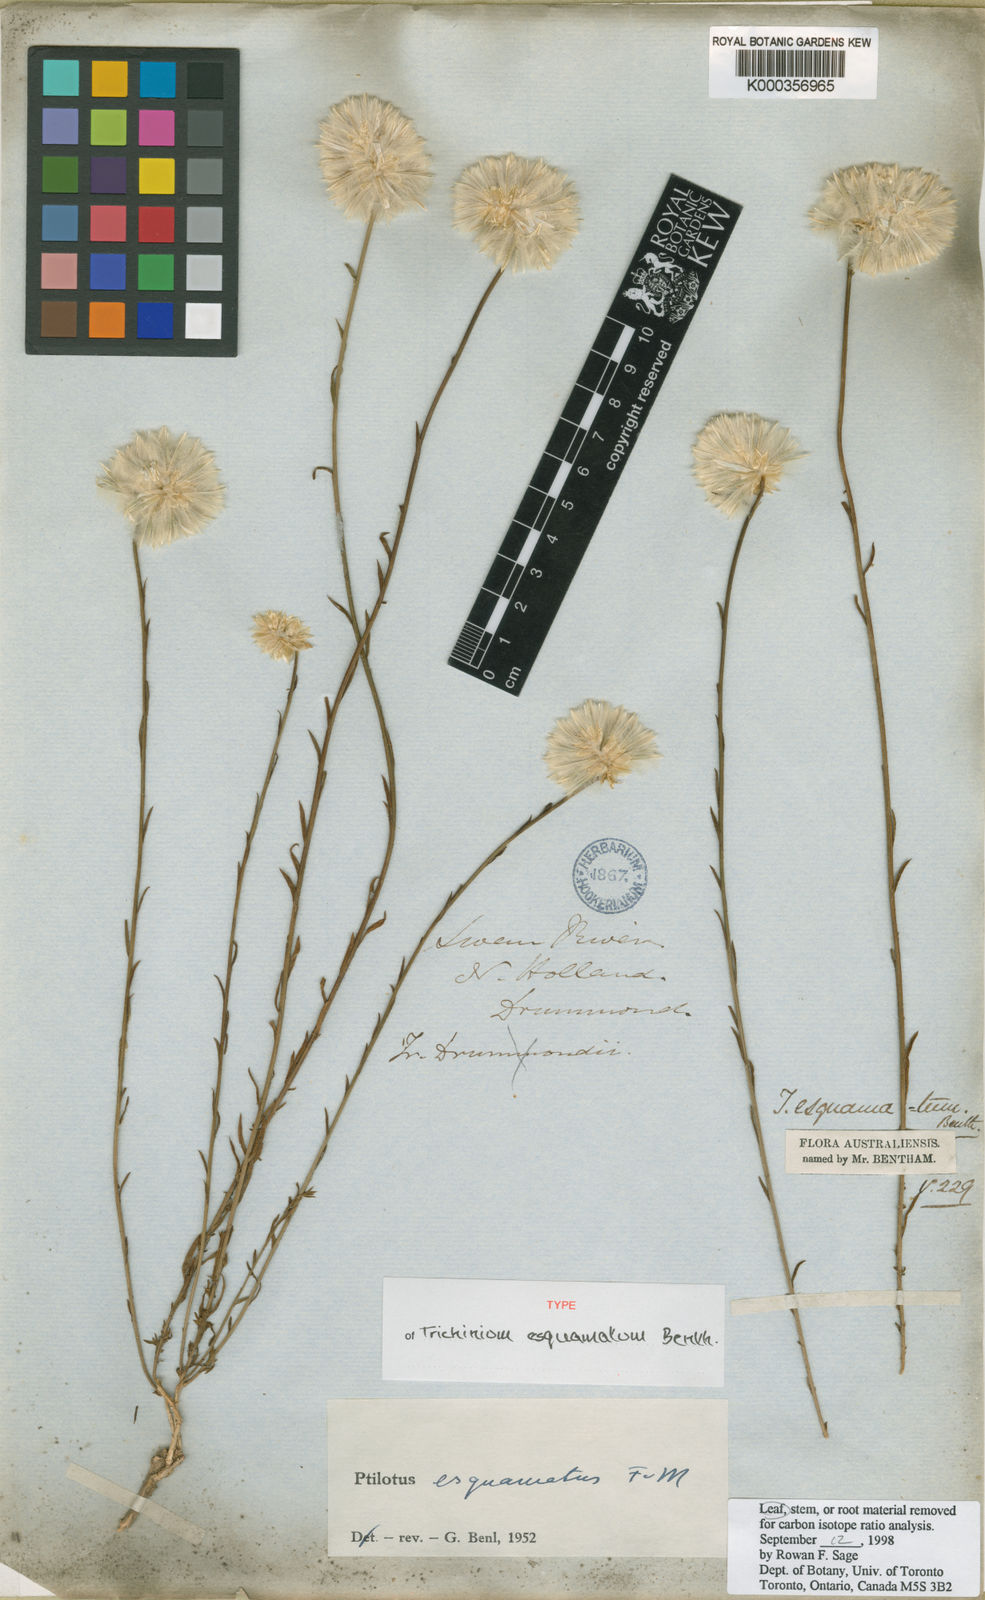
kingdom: Plantae
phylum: Tracheophyta
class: Magnoliopsida
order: Caryophyllales
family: Amaranthaceae
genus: Ptilotus
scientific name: Ptilotus esquamatus
